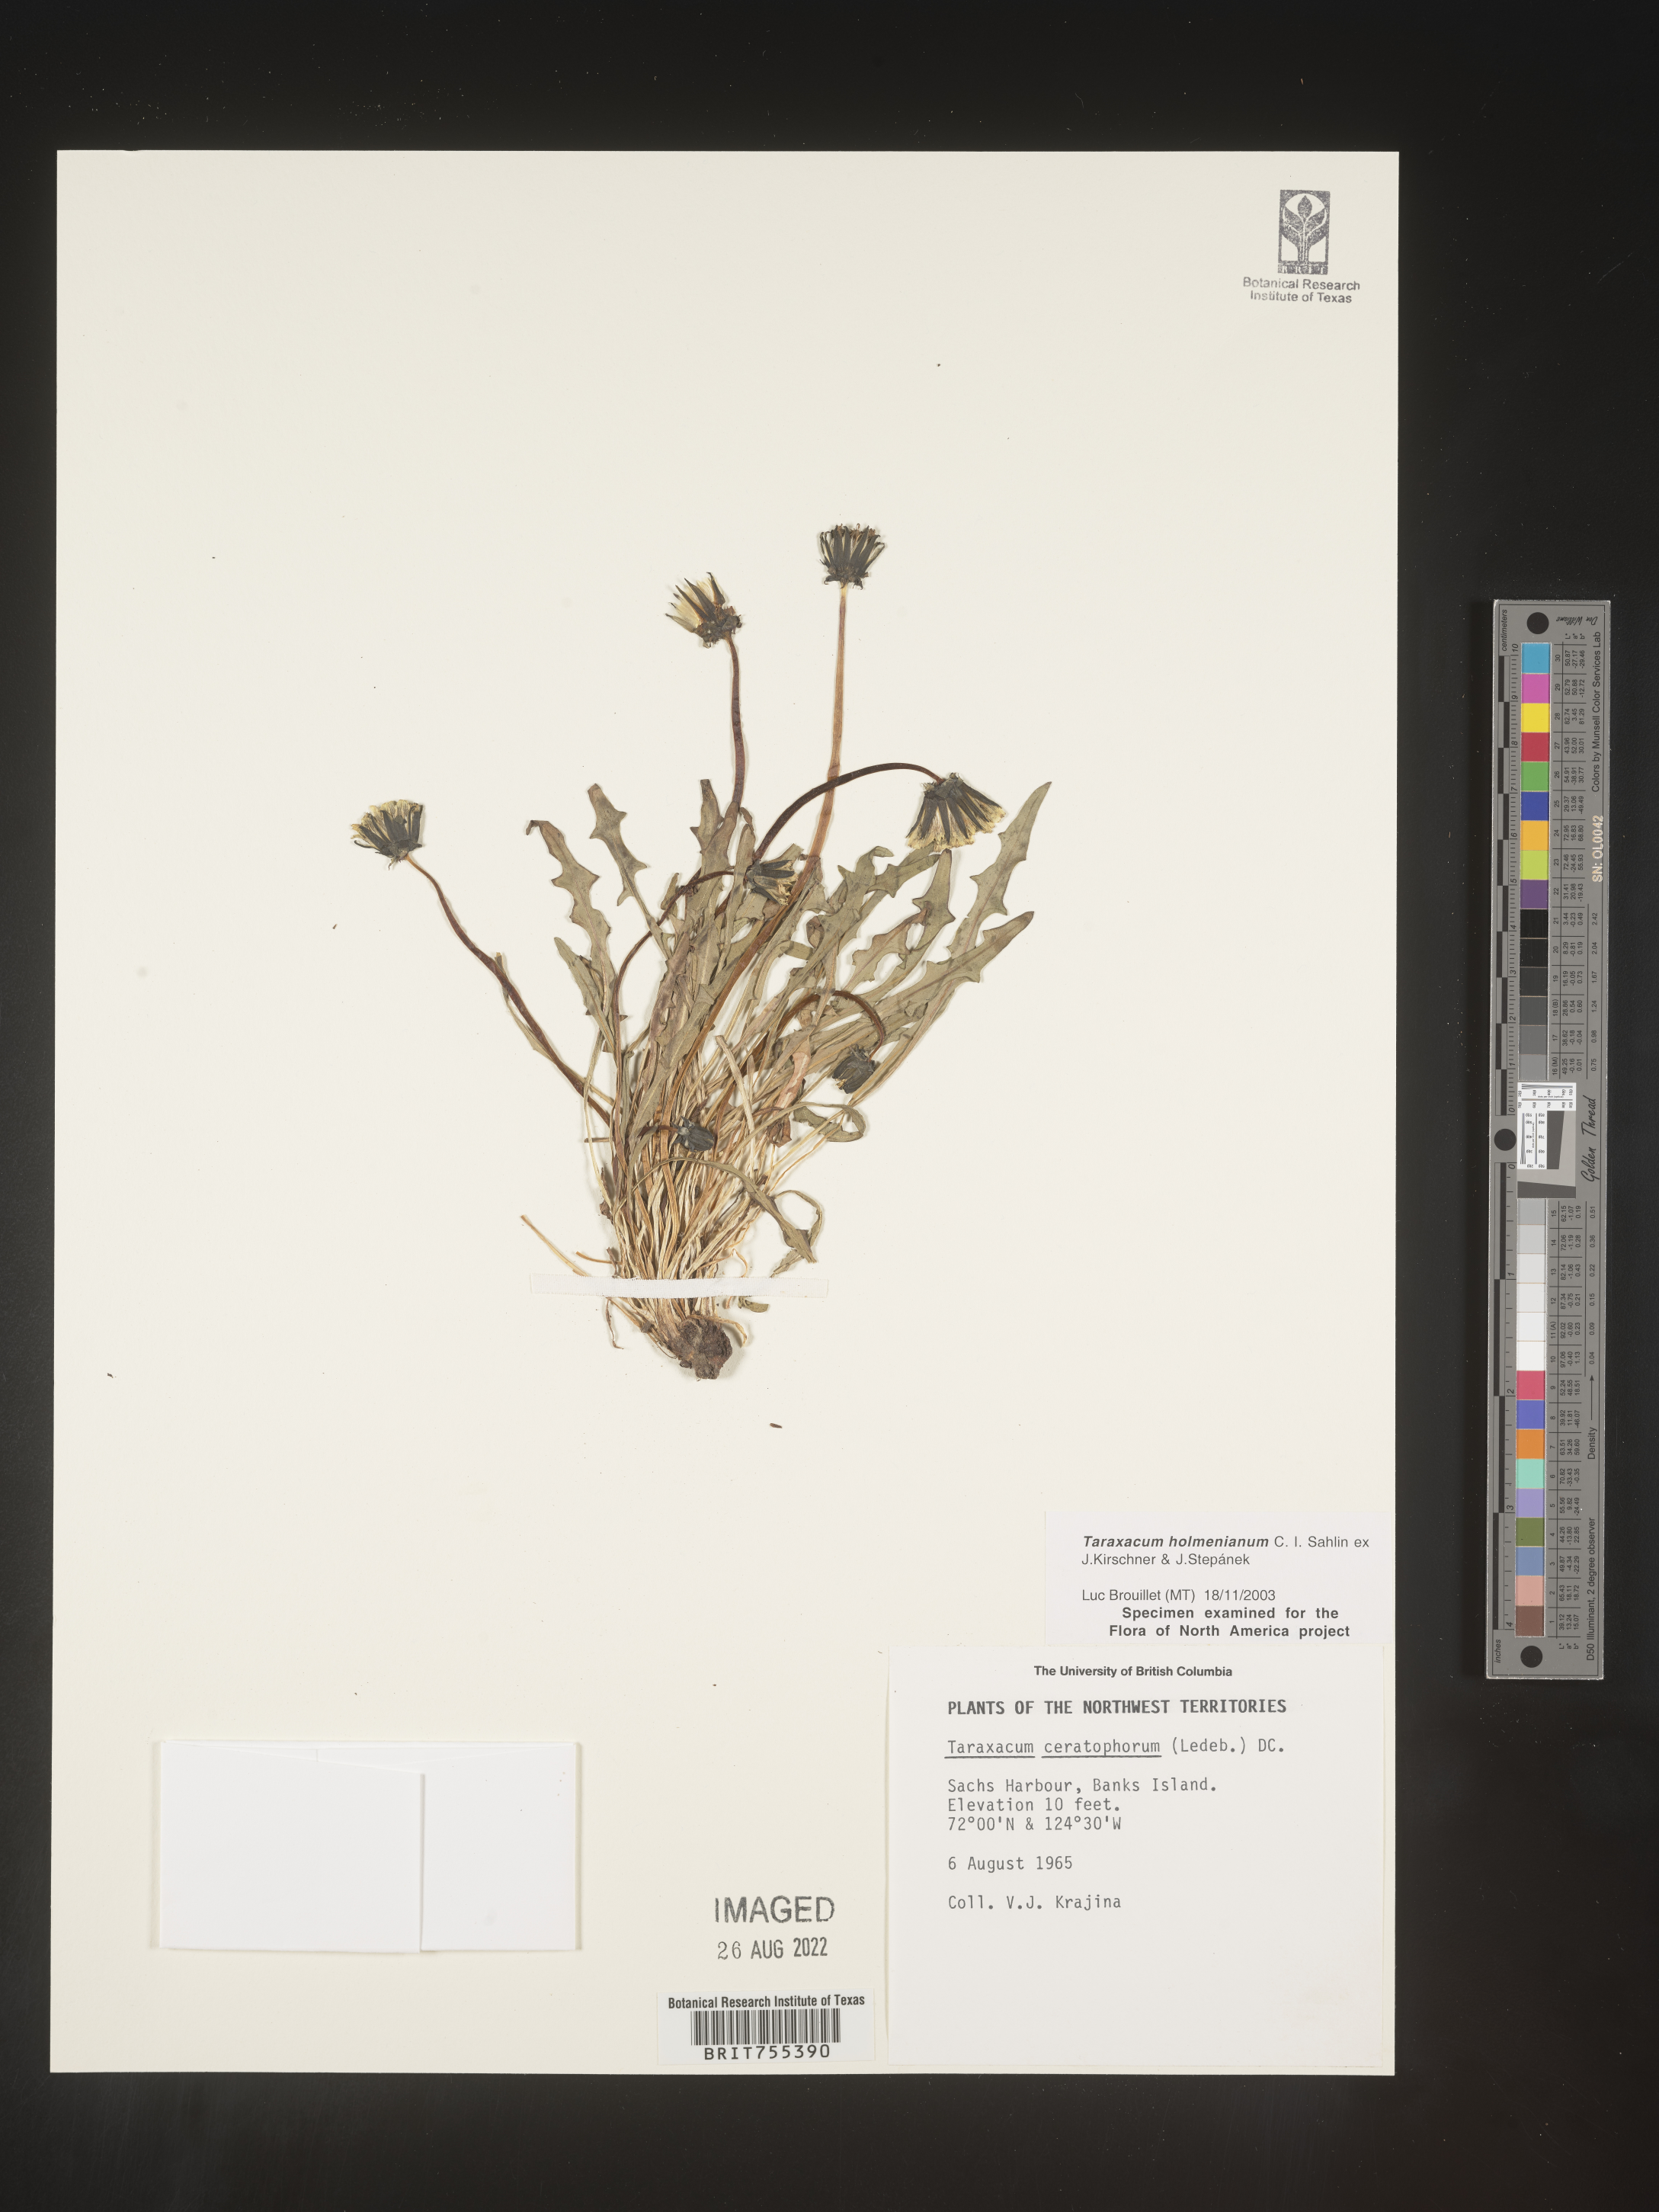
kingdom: Plantae
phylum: Tracheophyta
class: Magnoliopsida
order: Asterales
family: Asteraceae
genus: Taraxacum
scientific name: Taraxacum holmenianum
